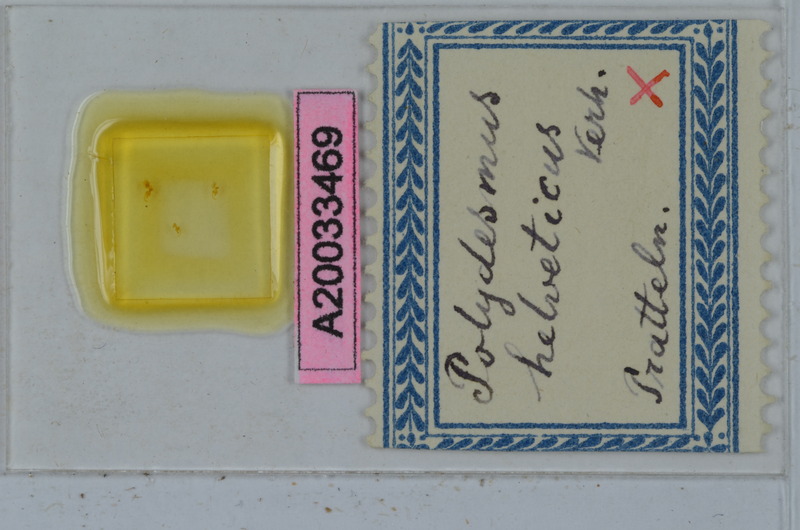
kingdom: Animalia
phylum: Arthropoda
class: Diplopoda
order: Polydesmida
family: Polydesmidae
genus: Propolydesmus
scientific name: Propolydesmus helveticus
